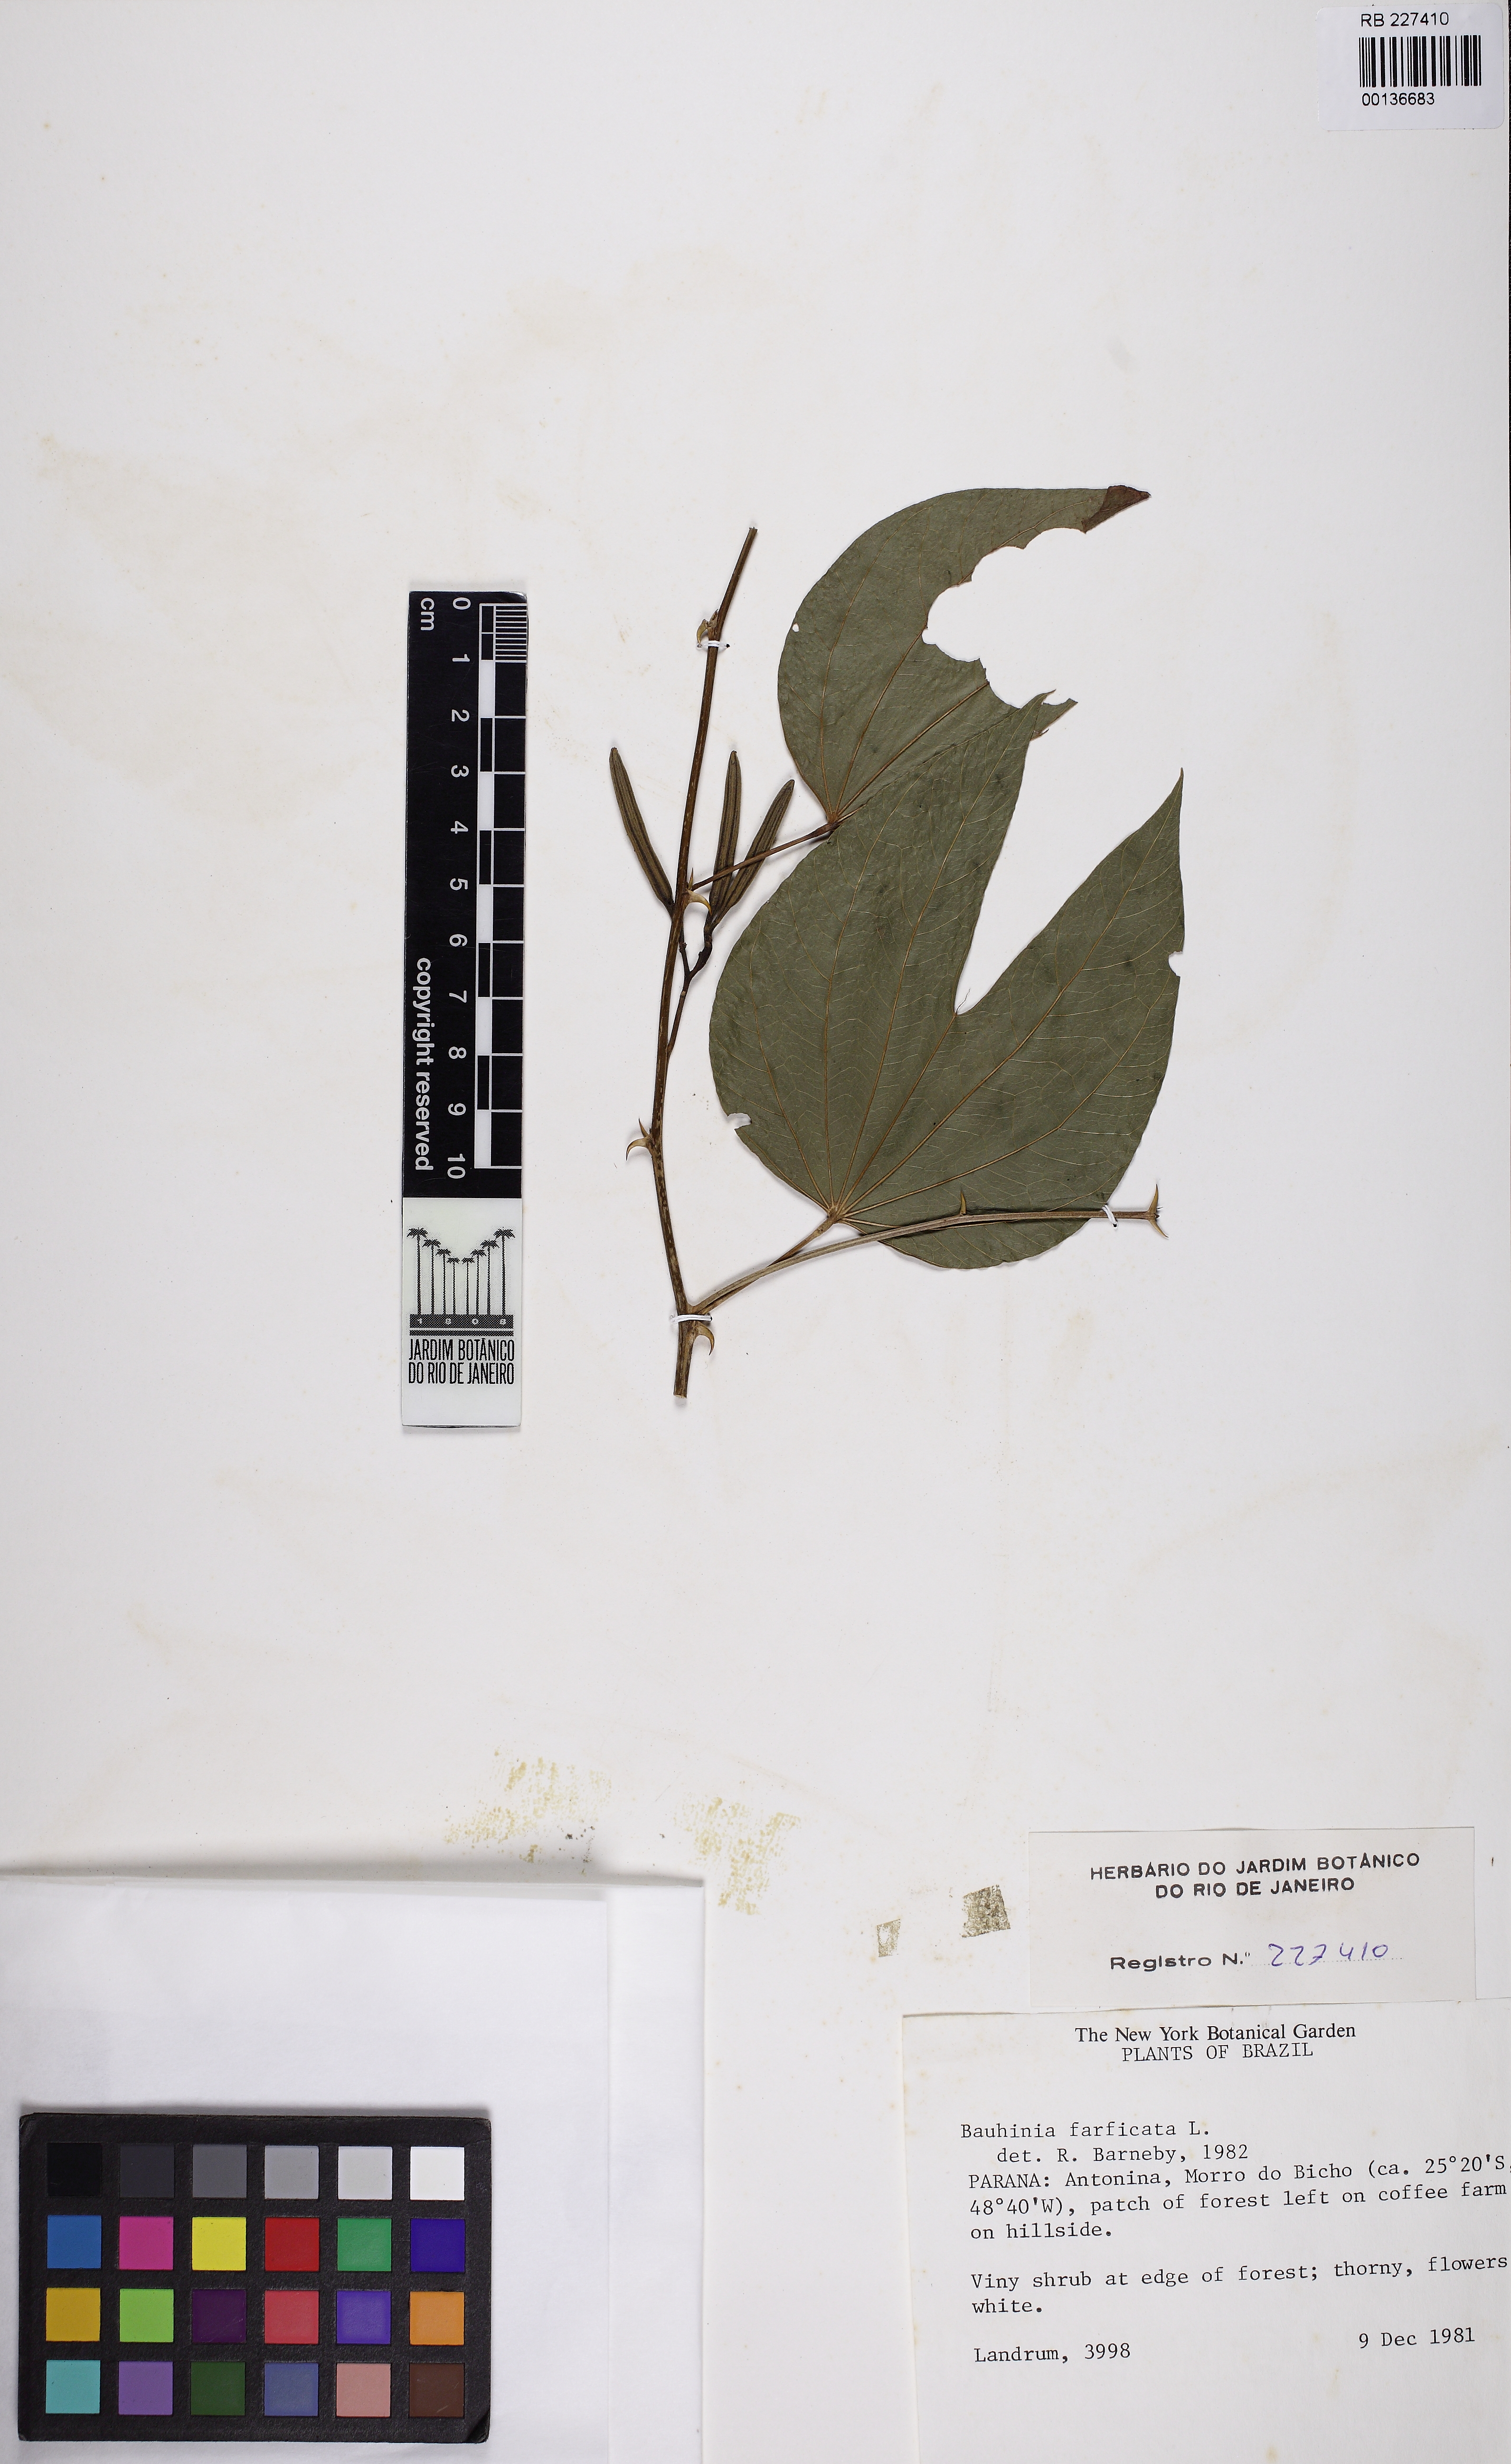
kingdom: Plantae
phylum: Tracheophyta
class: Magnoliopsida
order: Fabales
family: Fabaceae
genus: Bauhinia
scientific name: Bauhinia forficata
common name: Orchid tree
